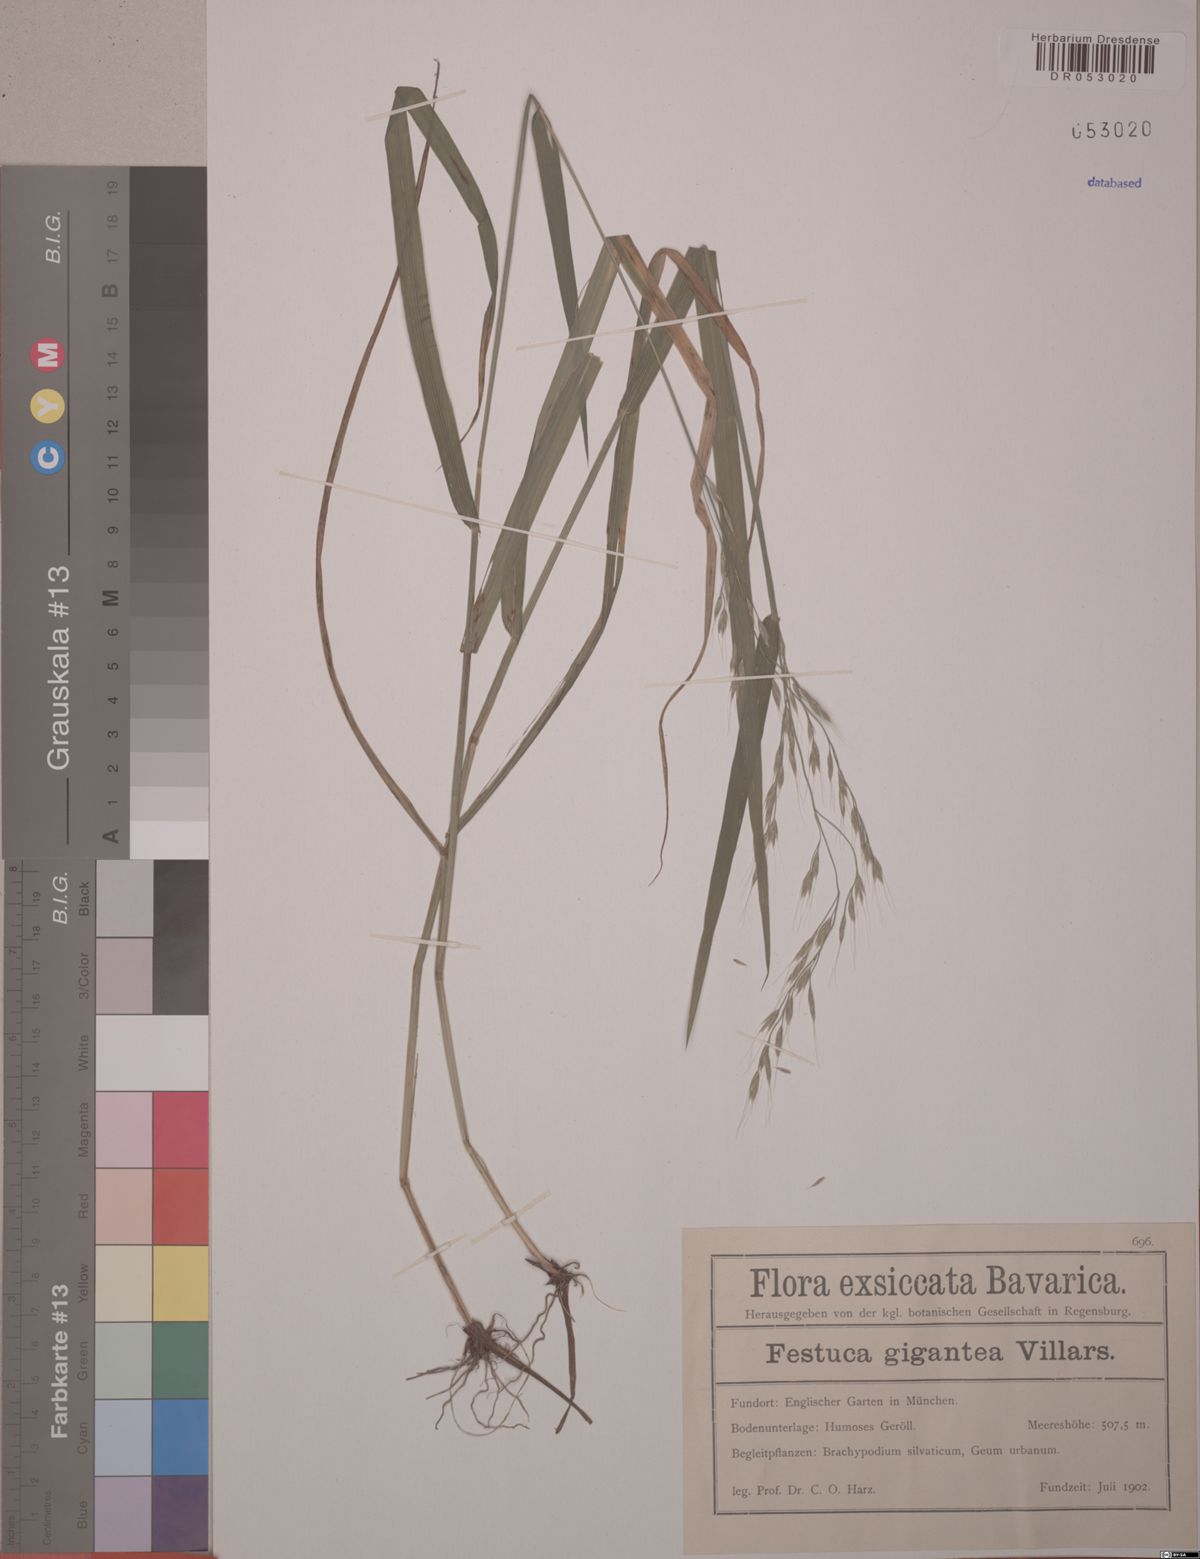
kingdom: Plantae
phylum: Tracheophyta
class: Liliopsida
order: Poales
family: Poaceae
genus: Lolium
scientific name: Lolium giganteum
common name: Giant fescue
